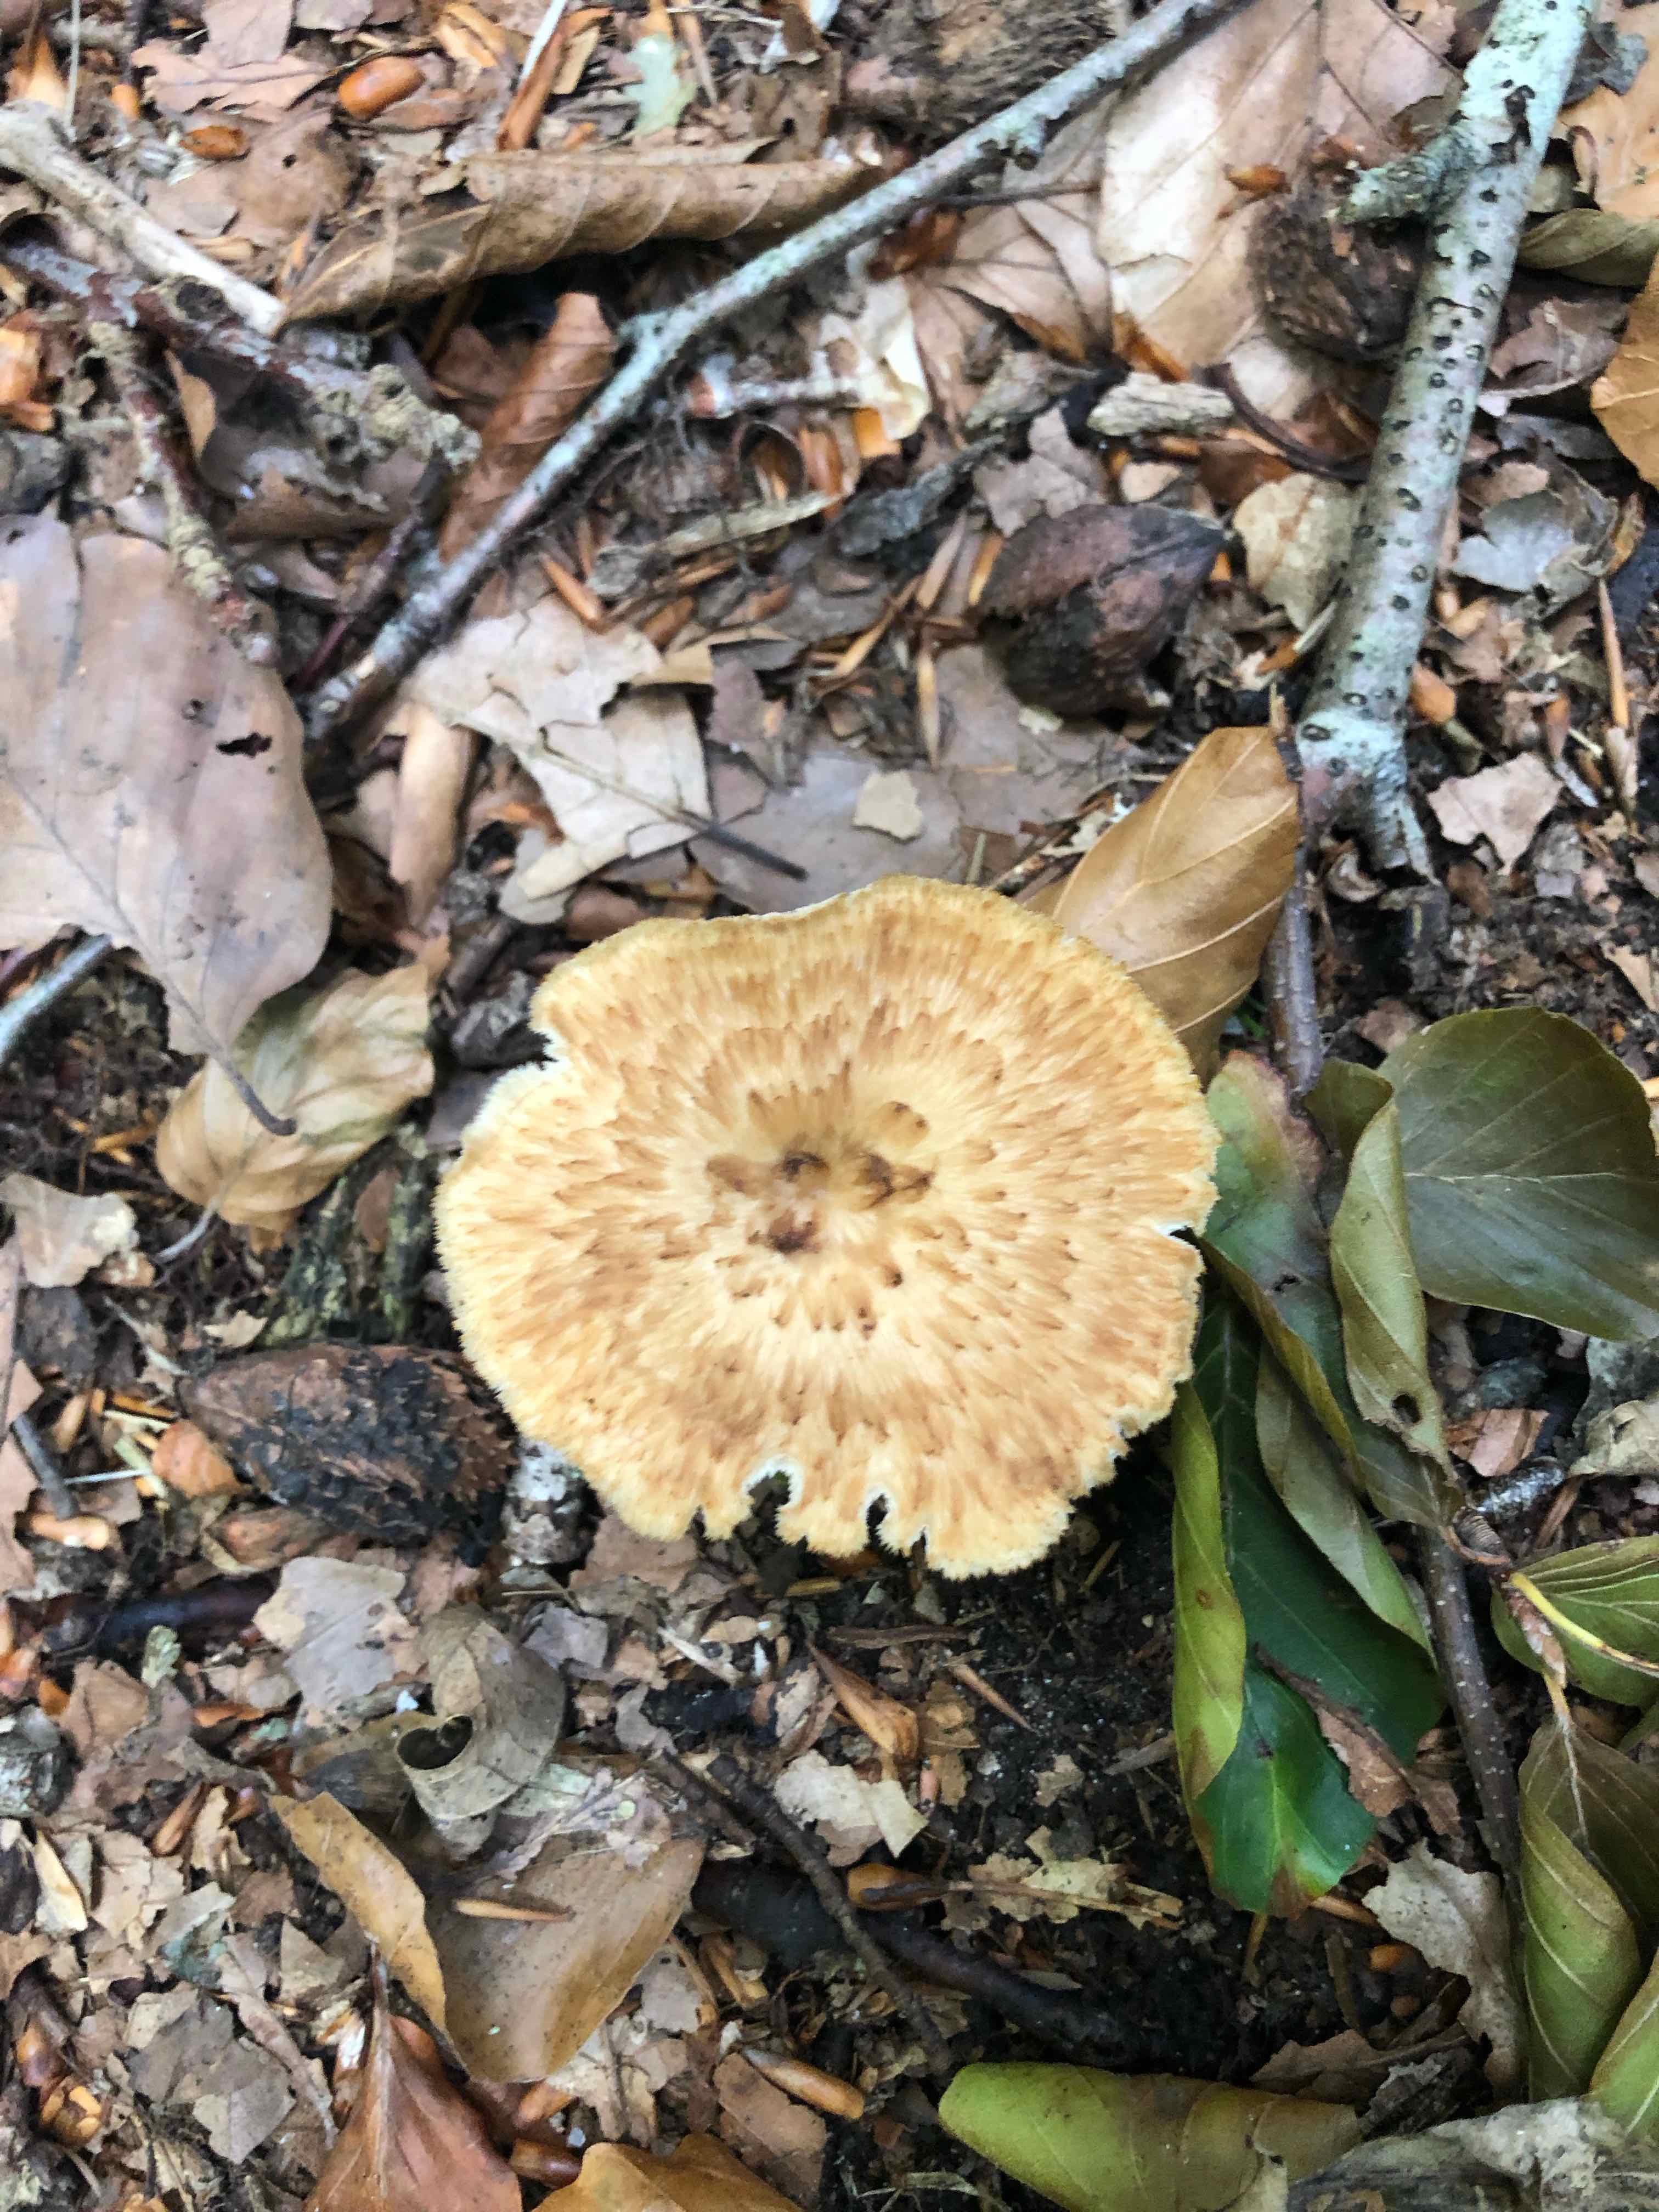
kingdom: Fungi
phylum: Basidiomycota
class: Agaricomycetes
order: Polyporales
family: Polyporaceae
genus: Polyporus
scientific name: Polyporus tuberaster
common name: knoldet stilkporesvamp
